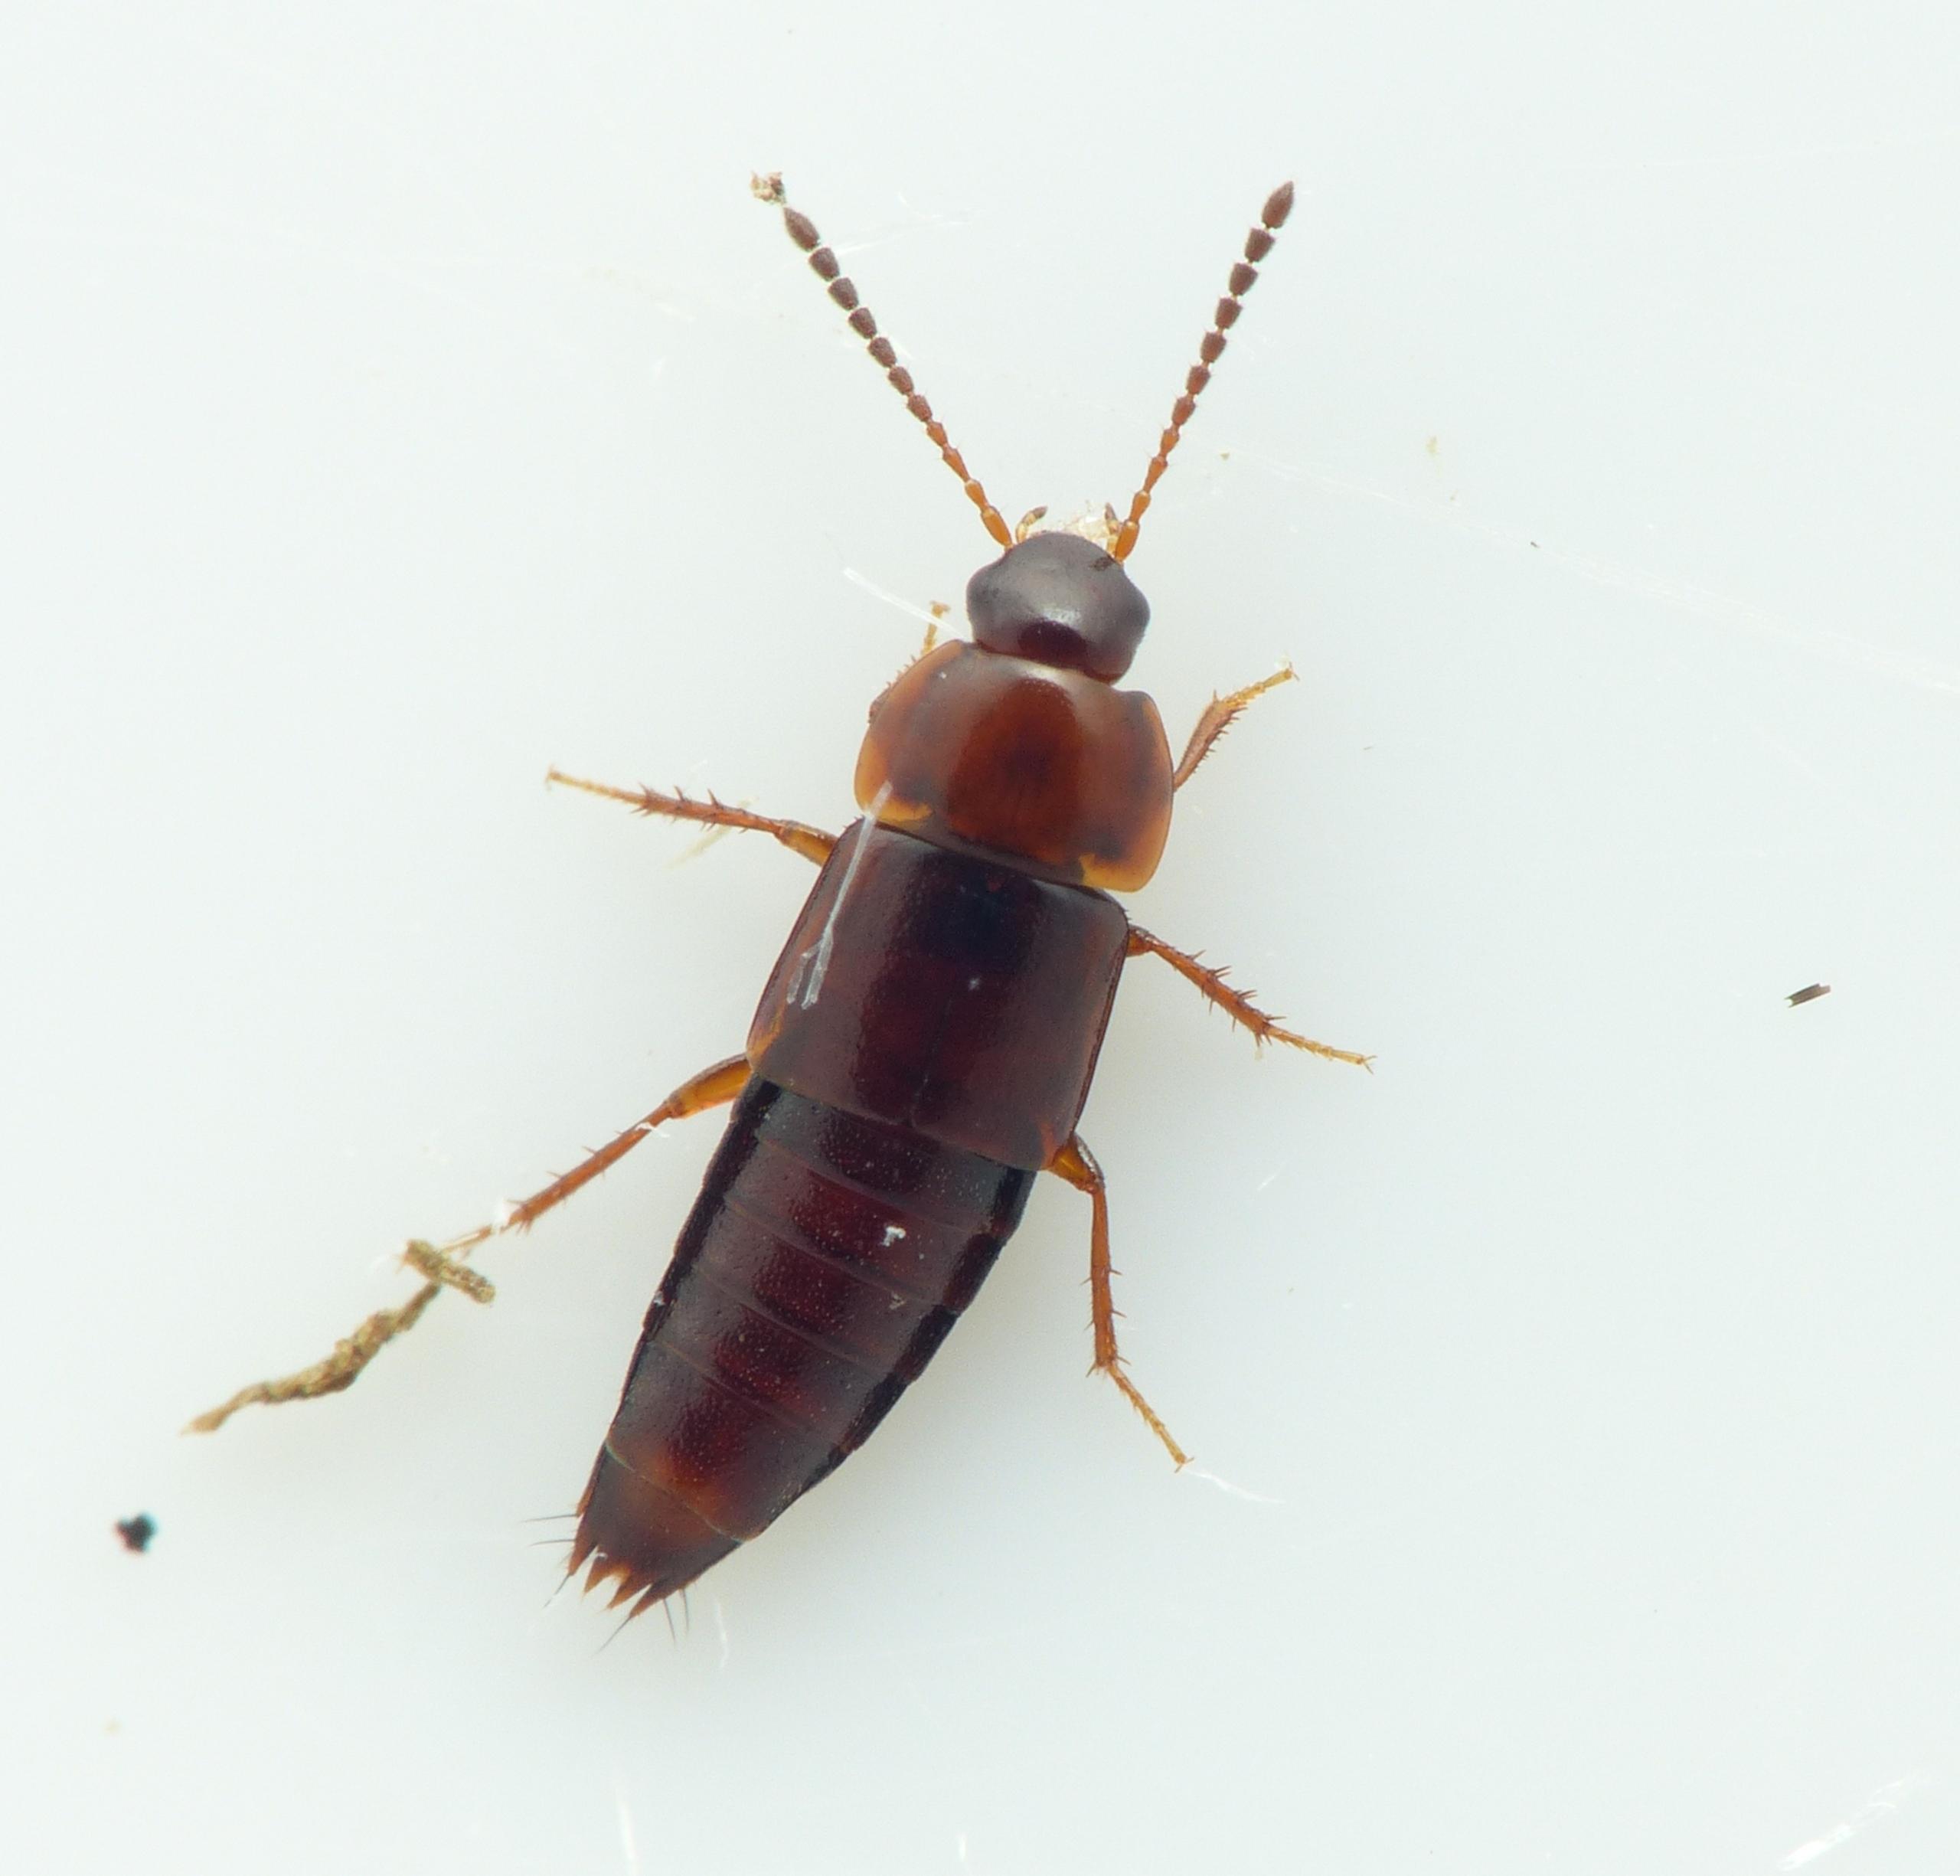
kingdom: Animalia
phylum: Arthropoda
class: Insecta
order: Coleoptera
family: Staphylinidae
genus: Tachinus
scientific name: Tachinus corticinus
